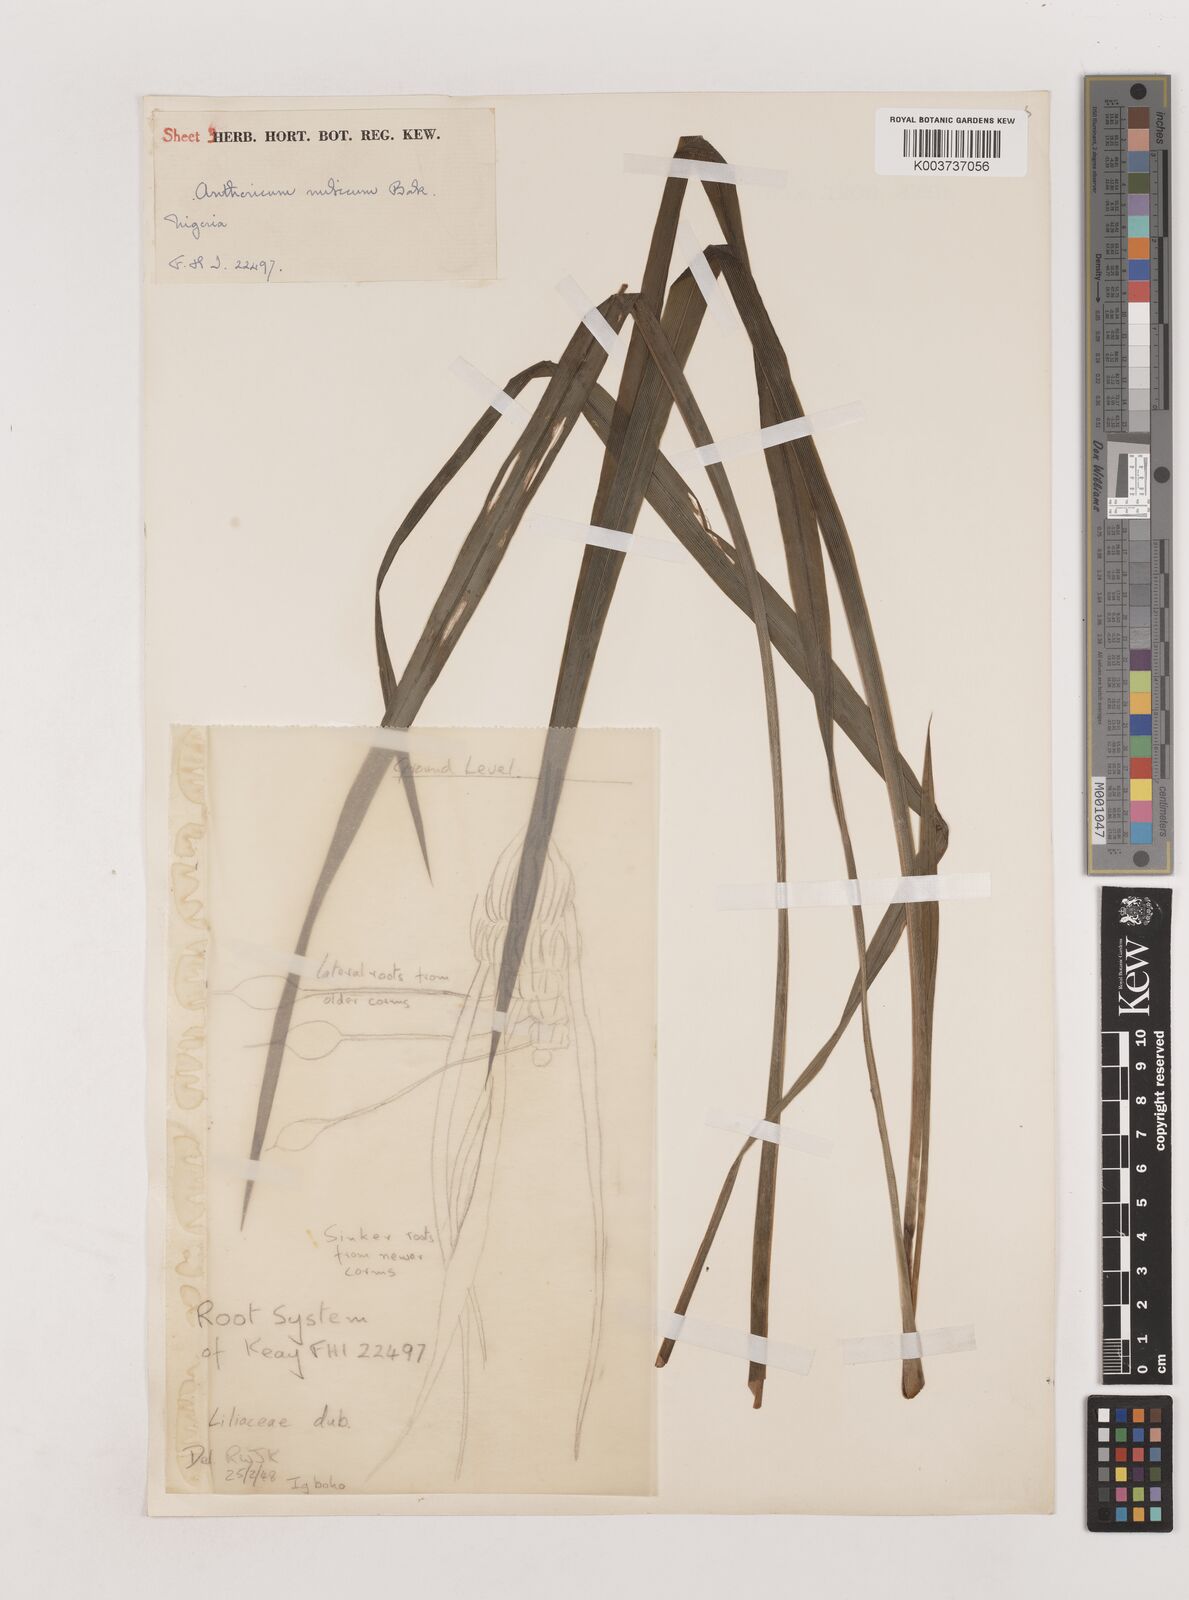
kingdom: Plantae
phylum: Tracheophyta
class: Liliopsida
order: Asparagales
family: Asparagaceae
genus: Chlorophytum
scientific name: Chlorophytum nubicum
